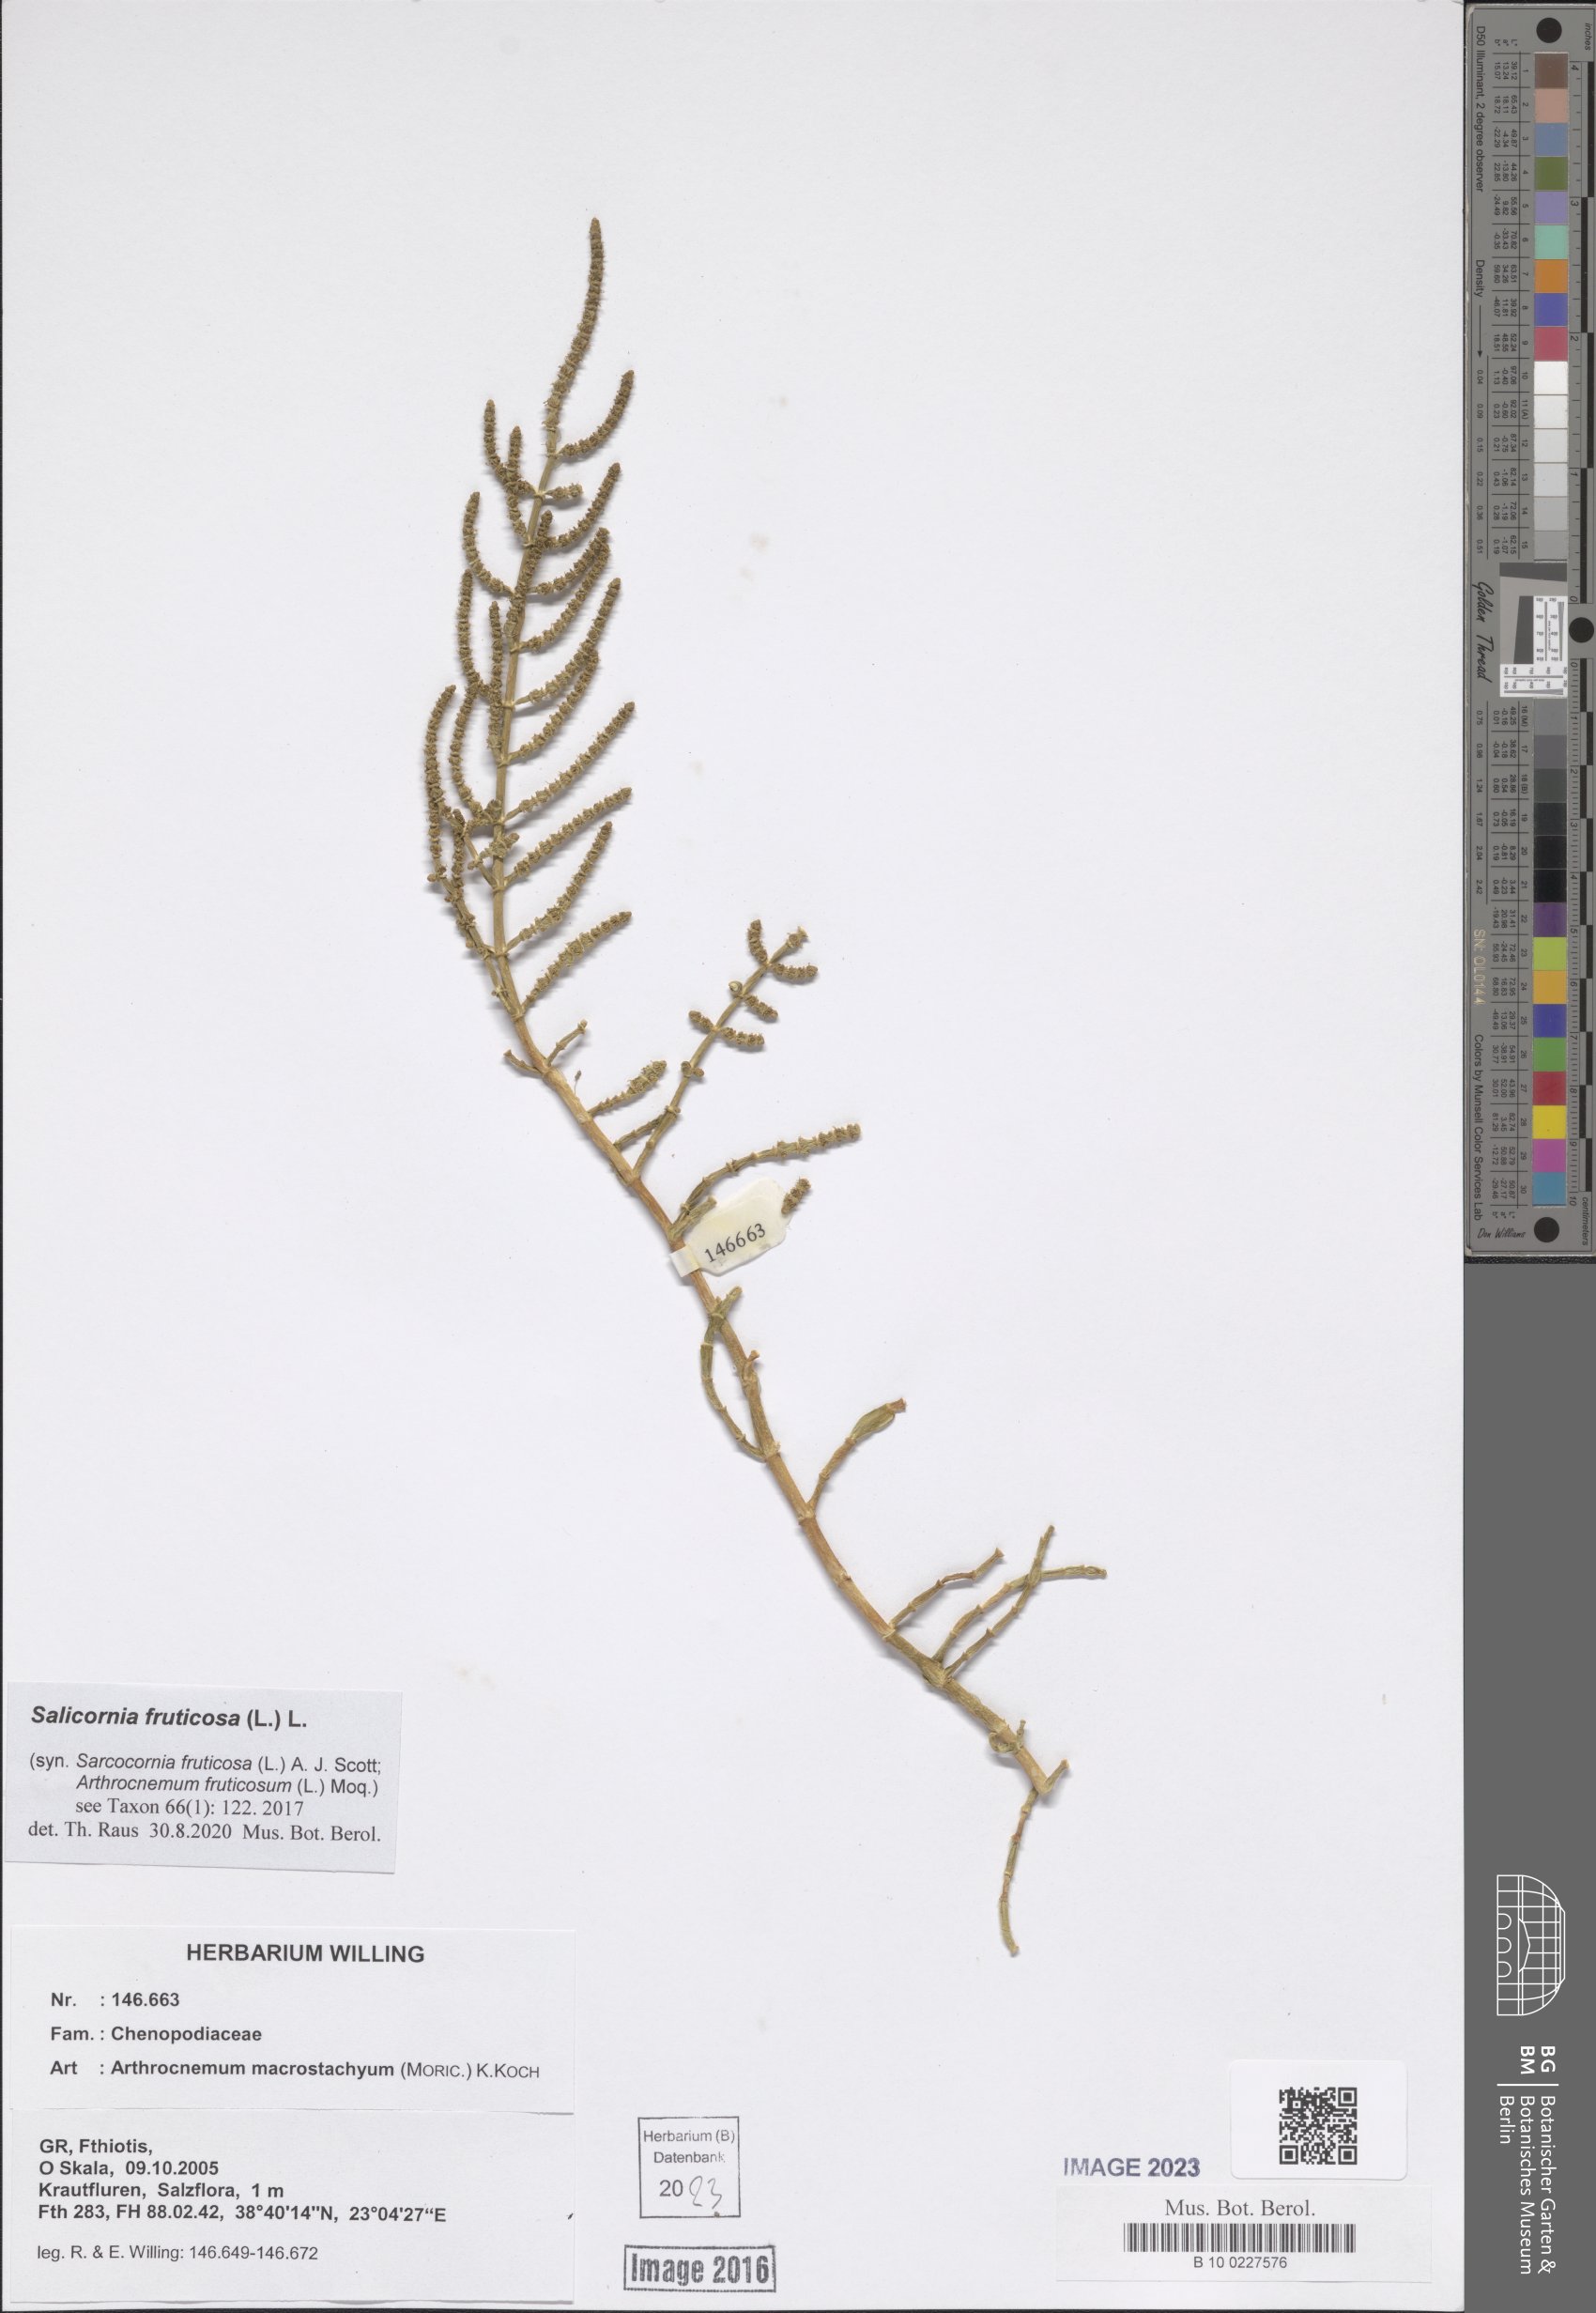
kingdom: Plantae
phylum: Tracheophyta
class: Magnoliopsida
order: Caryophyllales
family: Amaranthaceae
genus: Salicornia
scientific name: Salicornia fruticosa
